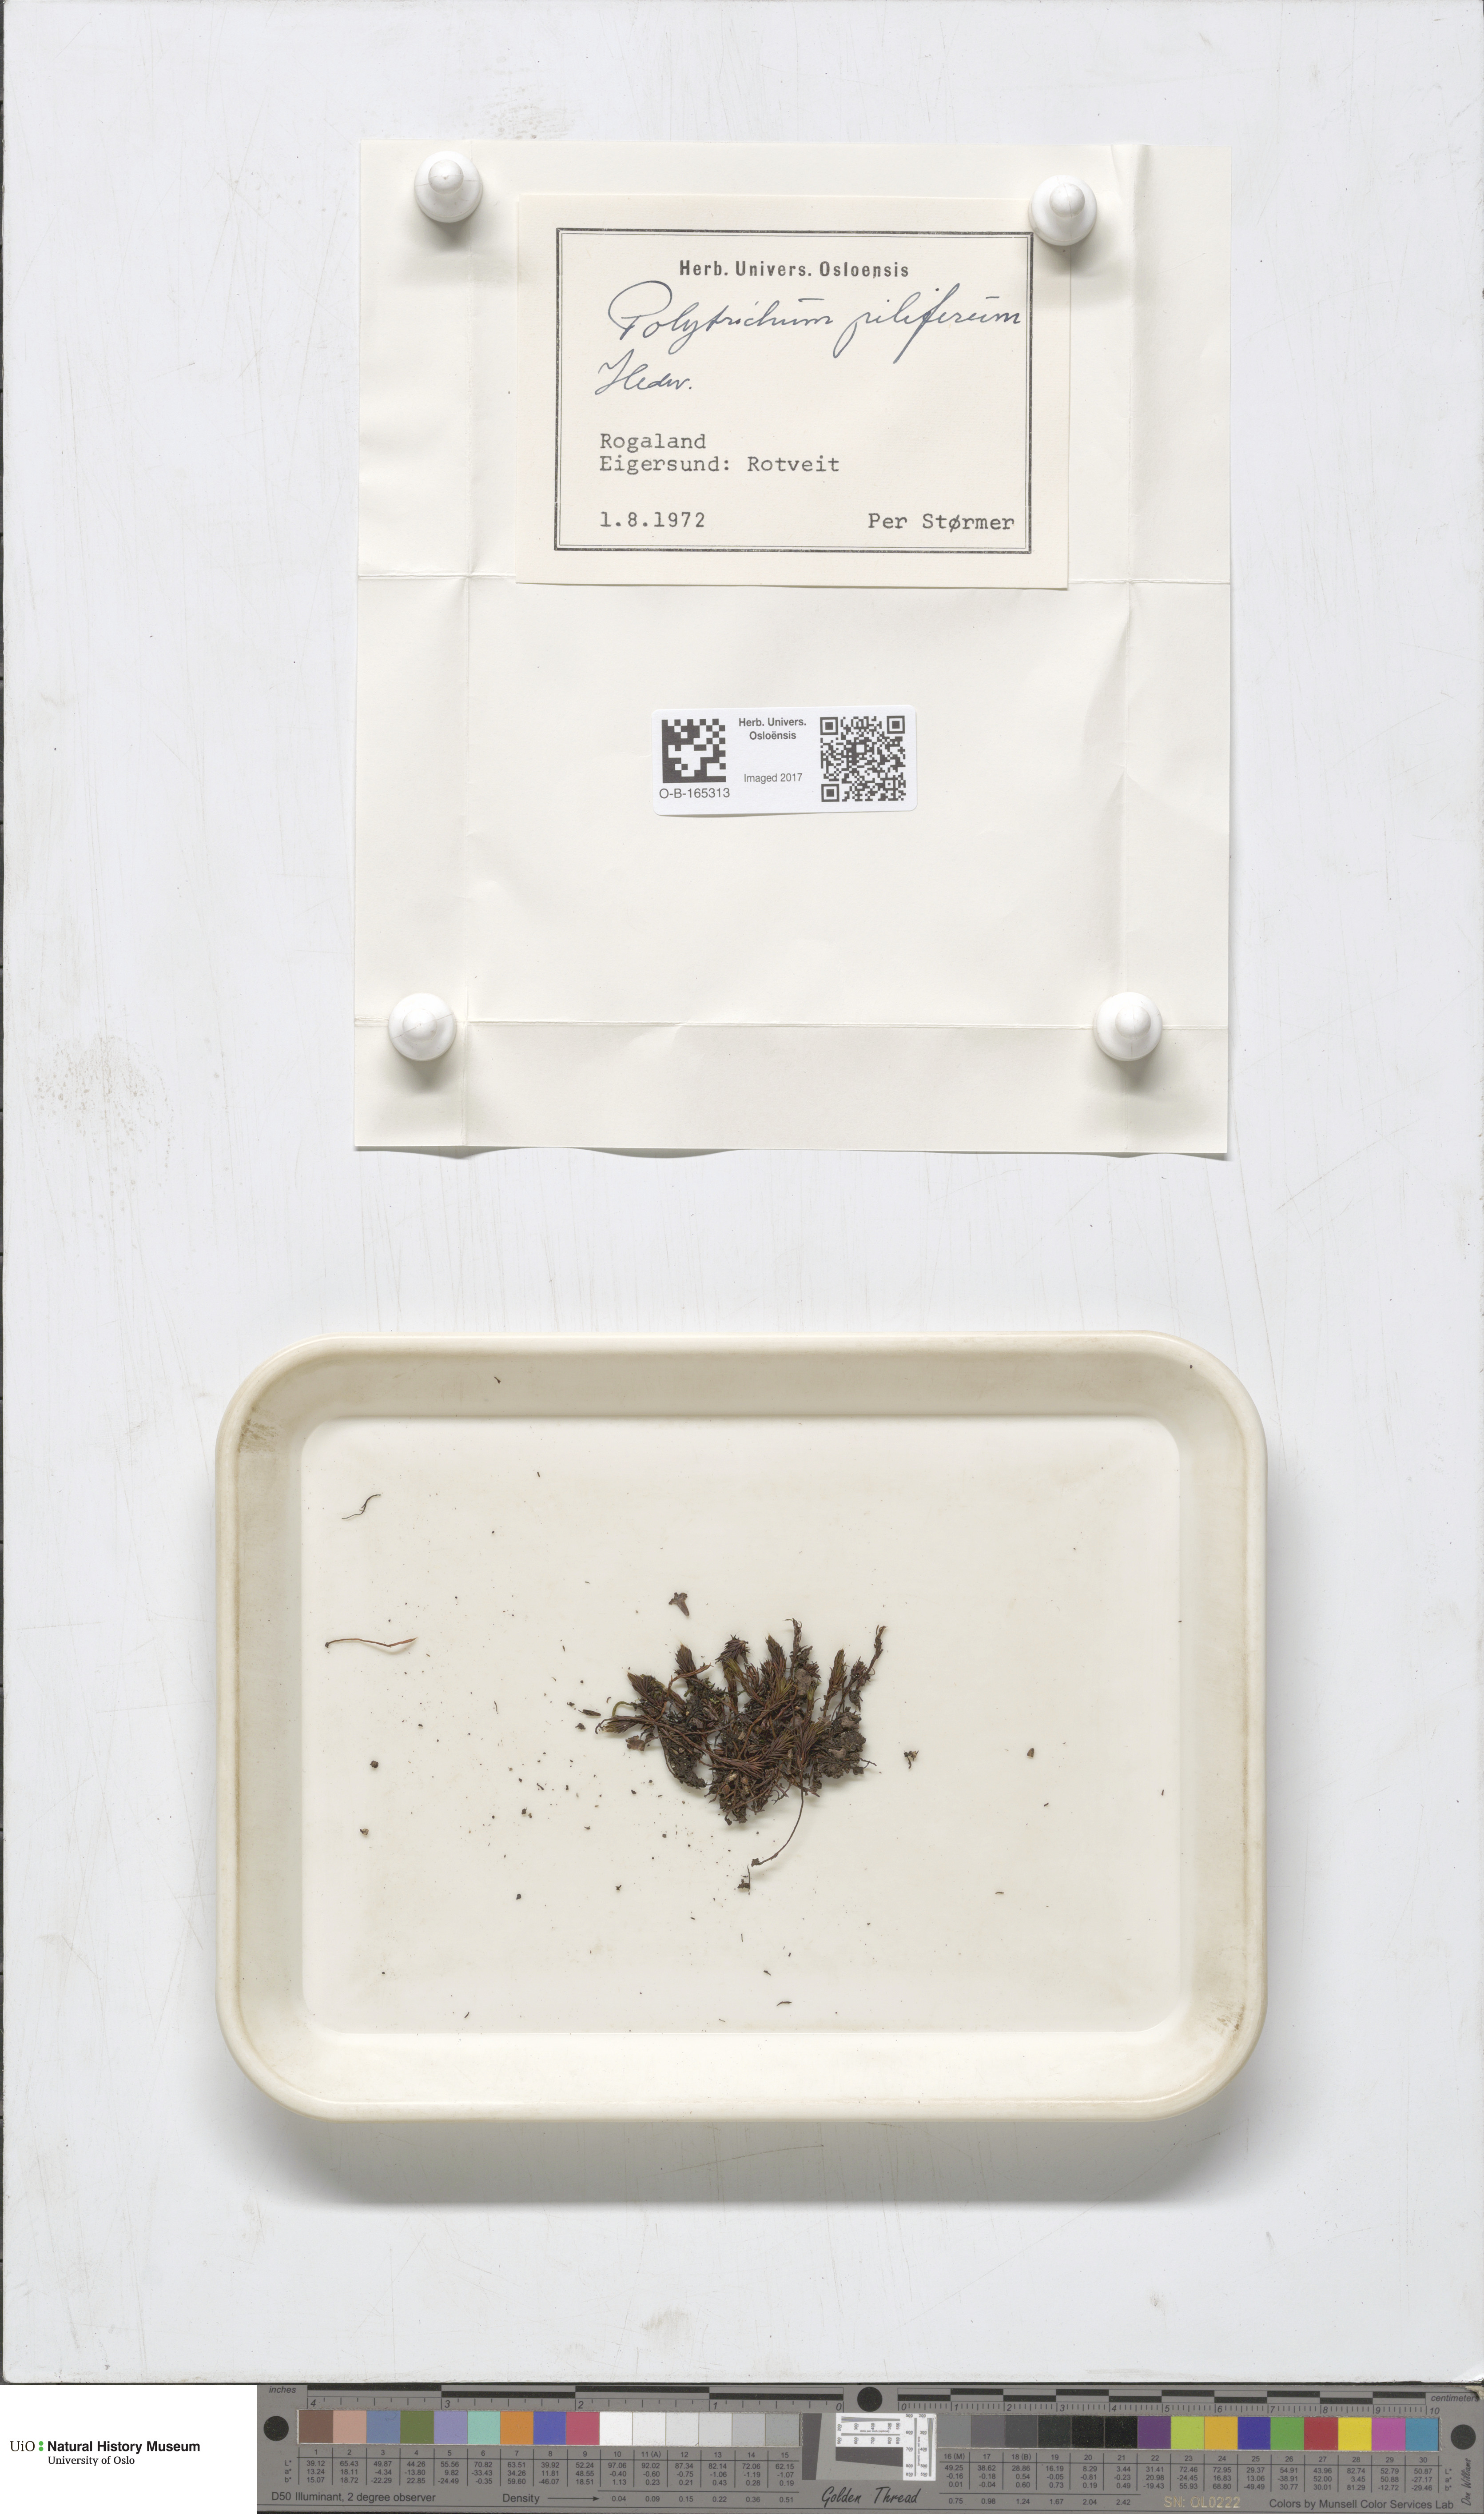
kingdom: Plantae
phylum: Bryophyta
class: Polytrichopsida
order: Polytrichales
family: Polytrichaceae
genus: Polytrichum
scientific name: Polytrichum piliferum
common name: Bristly haircap
